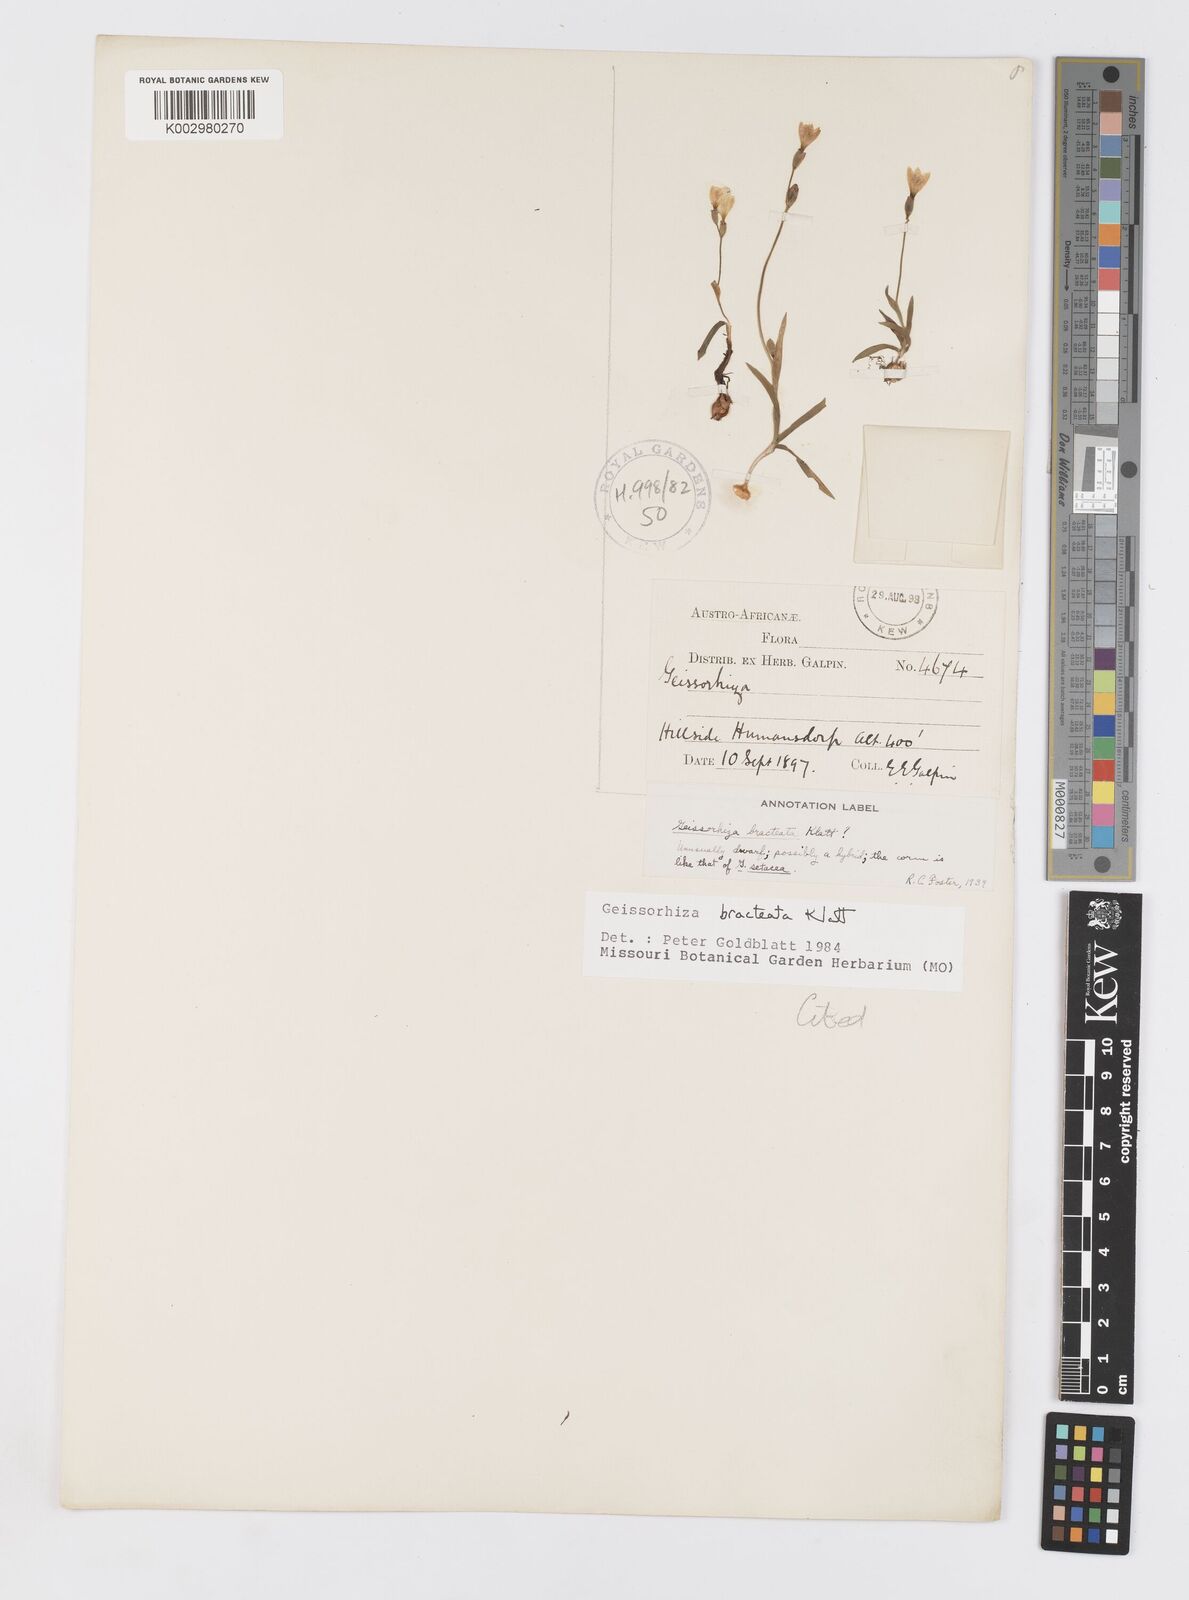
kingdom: Plantae
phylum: Tracheophyta
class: Liliopsida
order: Asparagales
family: Iridaceae
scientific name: Iridaceae
